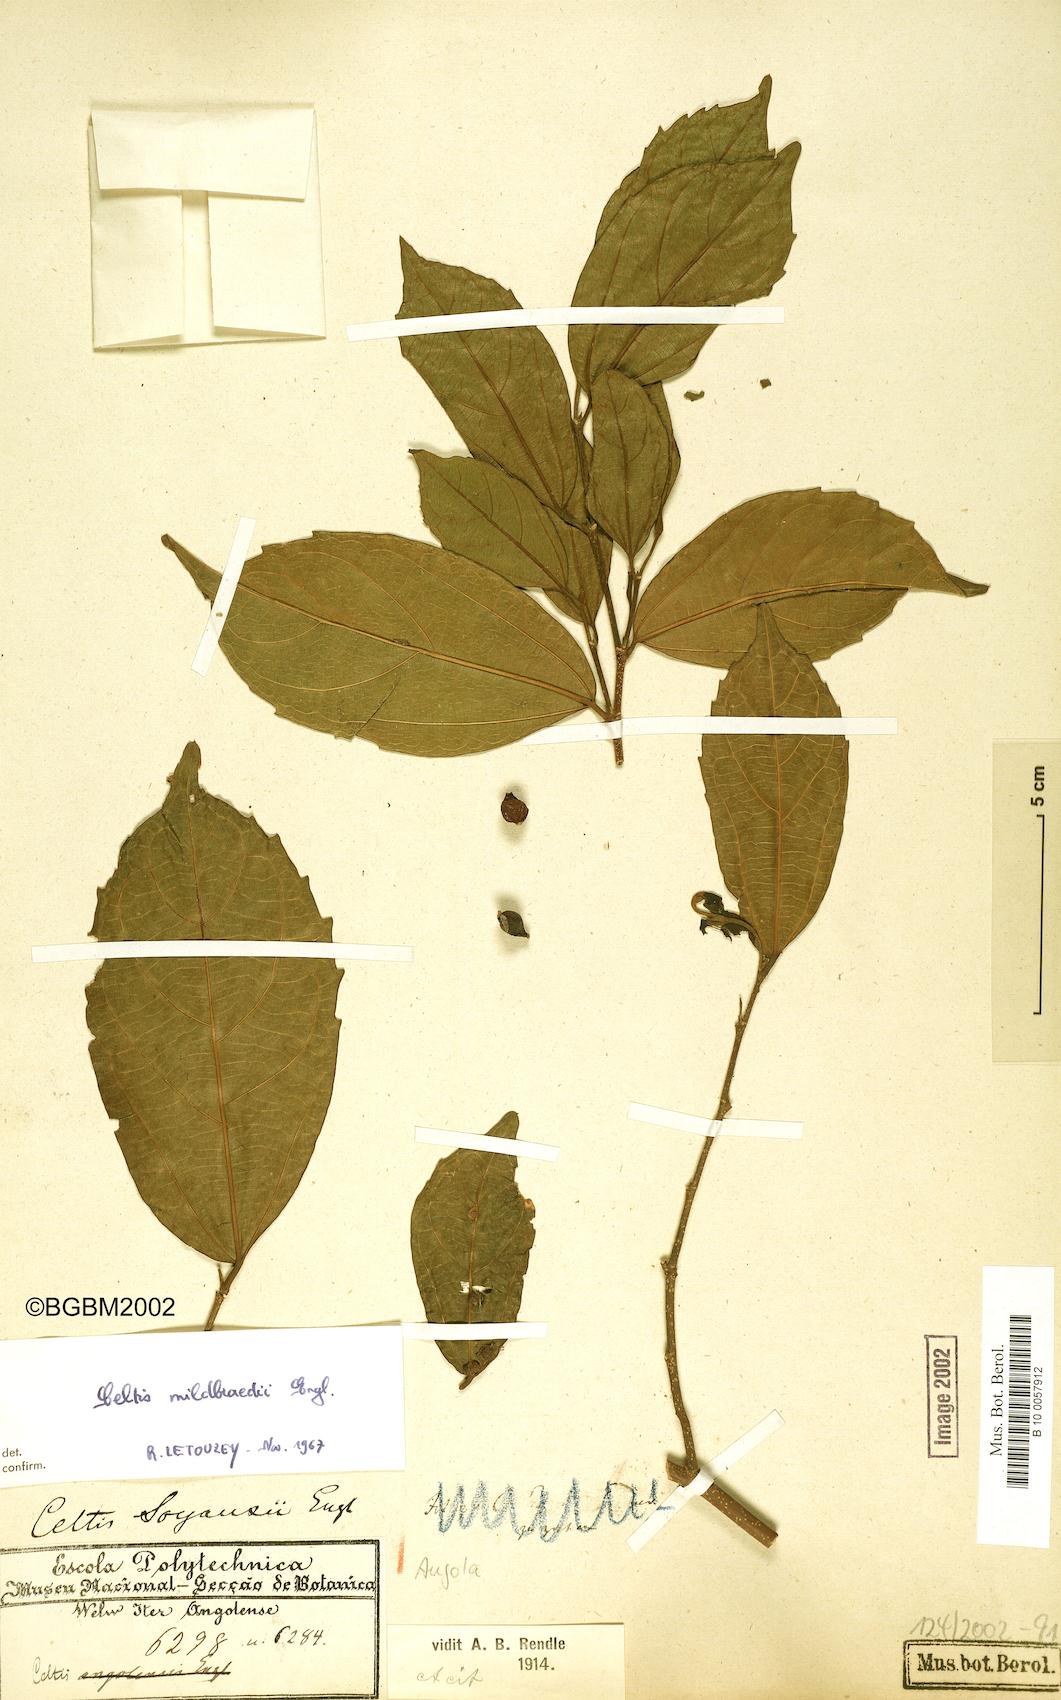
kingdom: Plantae
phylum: Tracheophyta
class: Magnoliopsida
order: Rosales
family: Cannabaceae
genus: Celtis
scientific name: Celtis zenkeri
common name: African celtis
